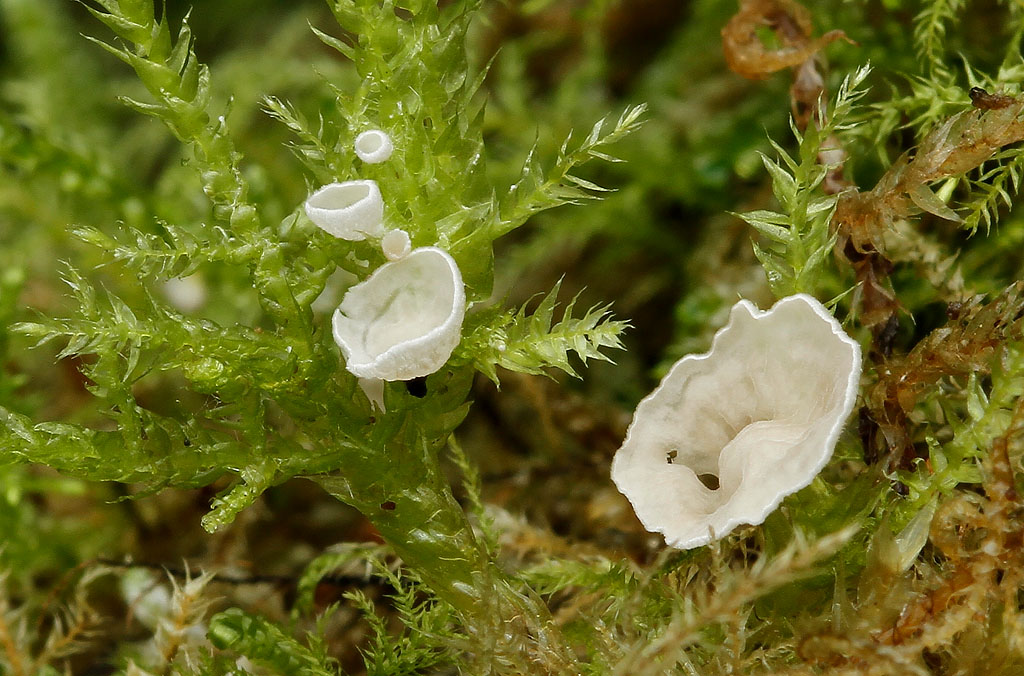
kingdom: Fungi
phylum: Basidiomycota
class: Agaricomycetes
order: Agaricales
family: Hygrophoraceae
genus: Arrhenia
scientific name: Arrhenia retiruga
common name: lille fontænehat
